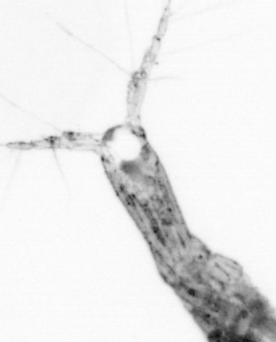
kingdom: Animalia
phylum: Arthropoda
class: Copepoda
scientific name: Copepoda
